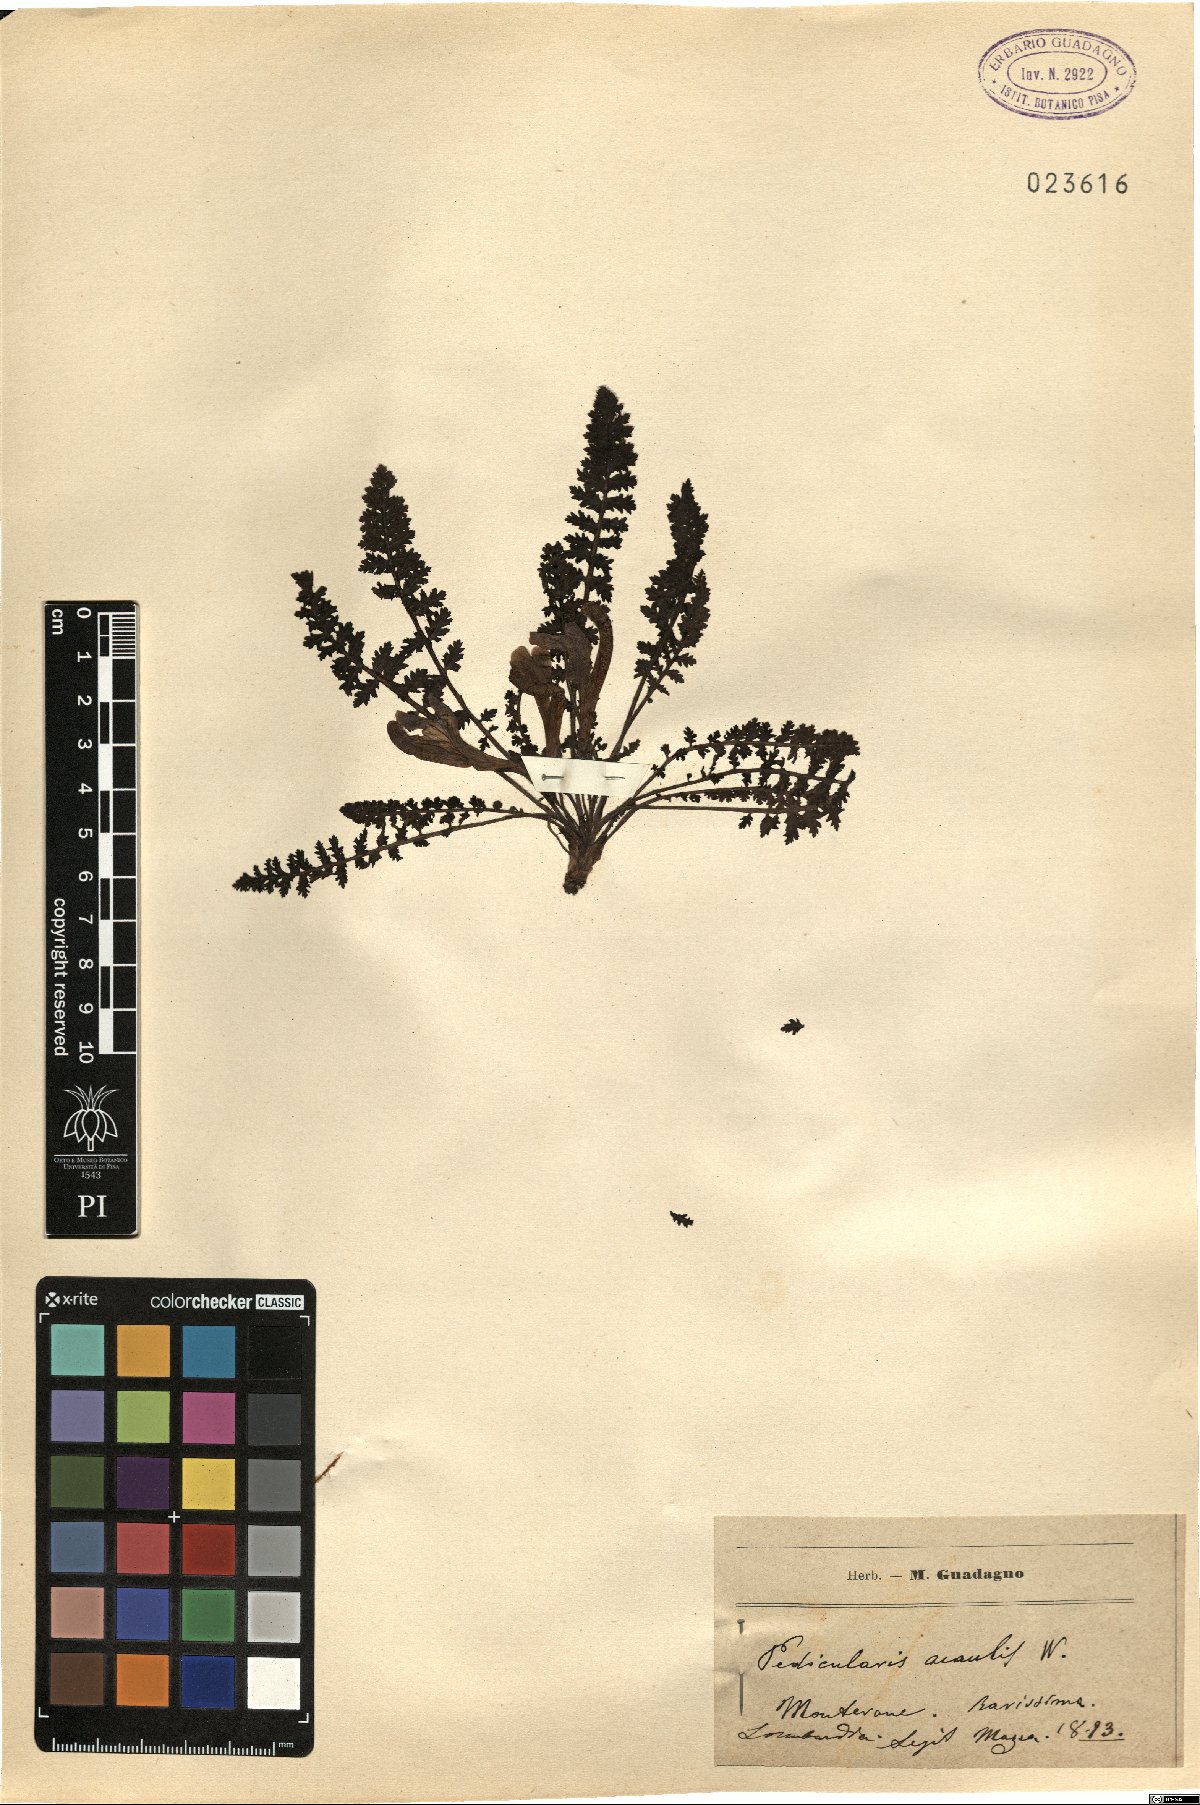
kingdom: Plantae
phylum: Tracheophyta
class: Magnoliopsida
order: Lamiales
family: Orobanchaceae
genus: Pedicularis
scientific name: Pedicularis acaulis
